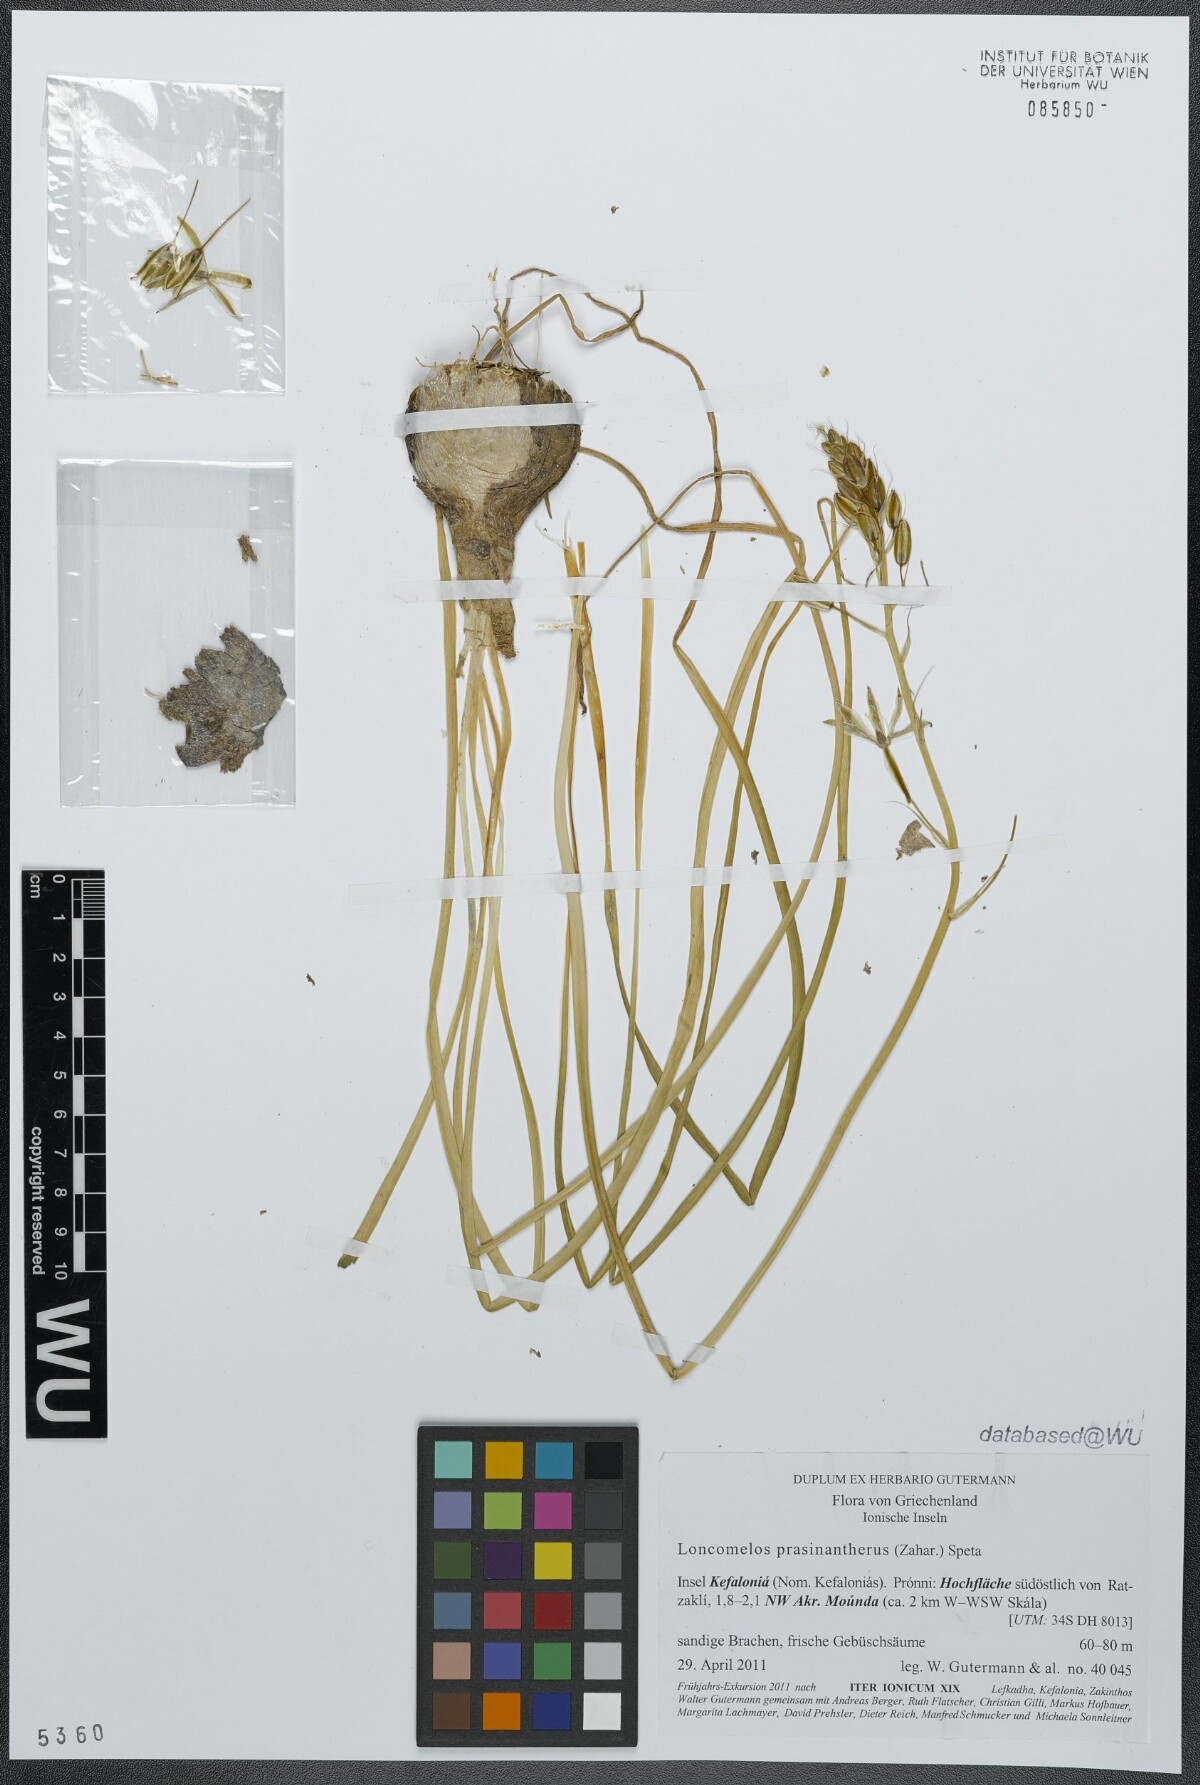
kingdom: Plantae
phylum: Tracheophyta
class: Liliopsida
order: Asparagales
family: Asparagaceae
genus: Ornithogalum
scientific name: Ornithogalum prasinantherum
